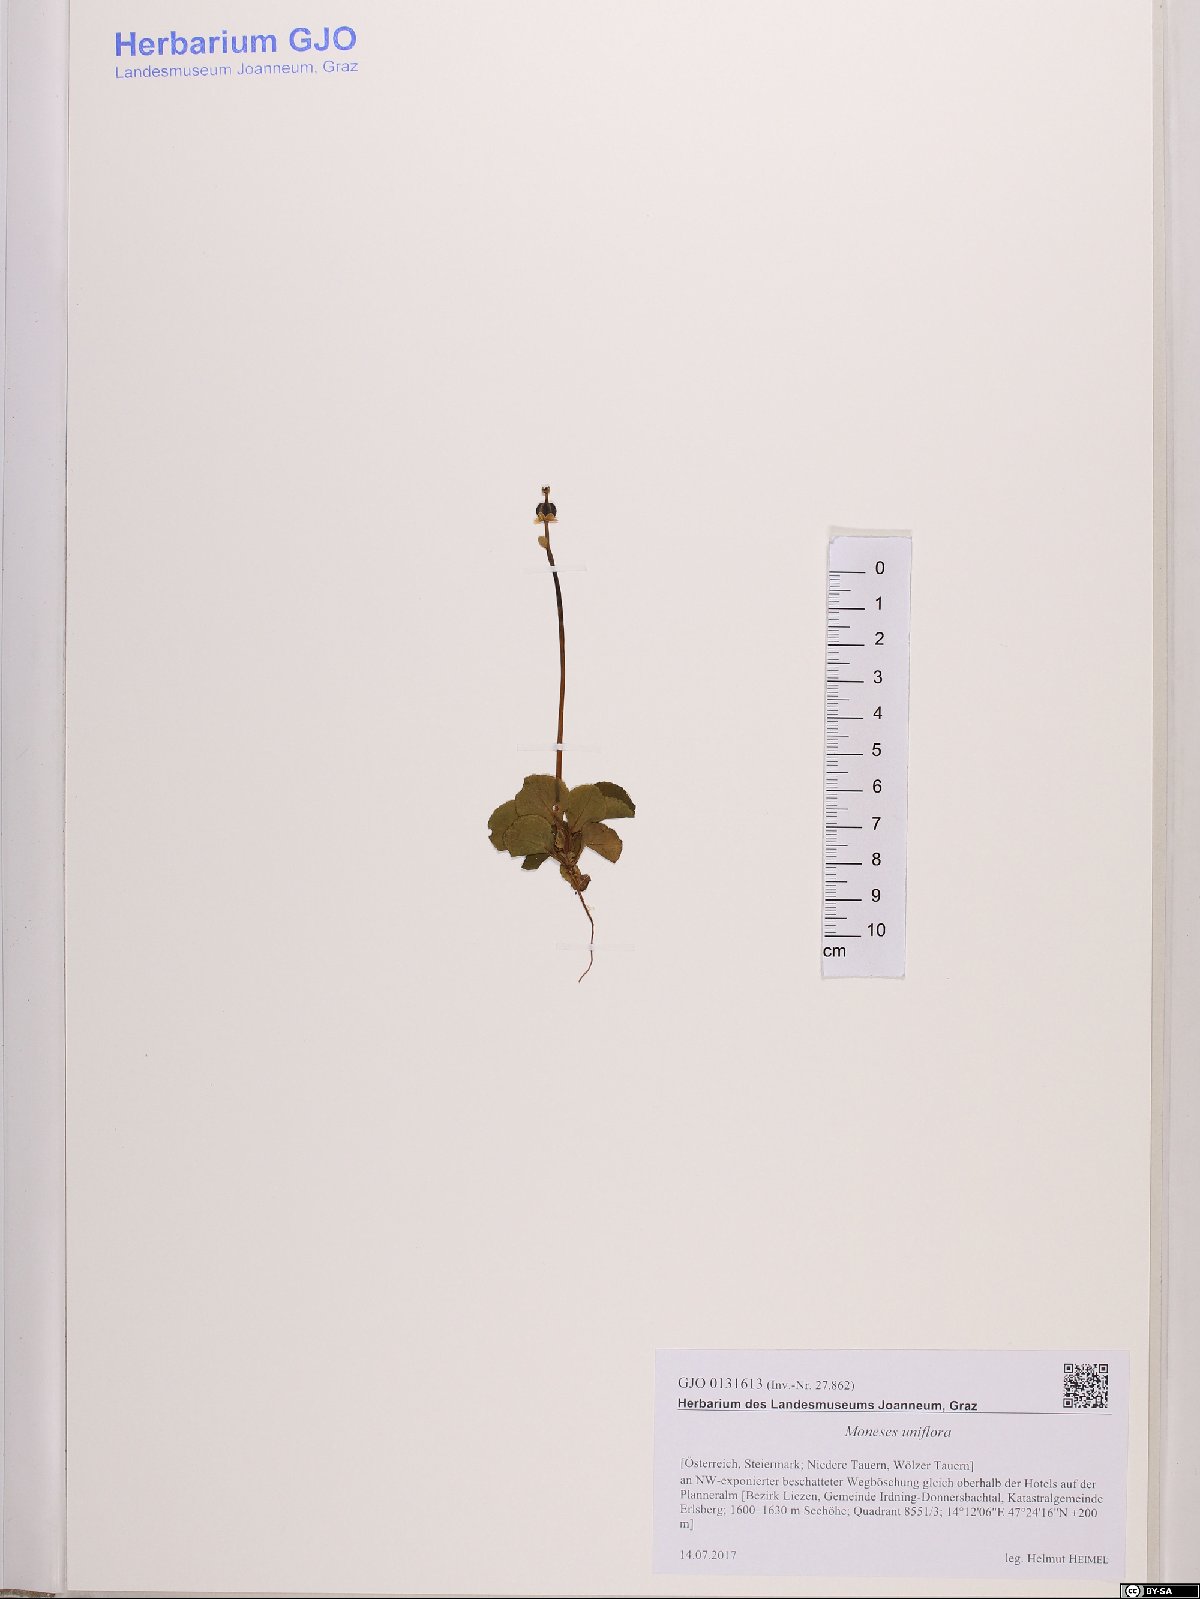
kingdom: Plantae
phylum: Tracheophyta
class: Magnoliopsida
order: Ericales
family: Ericaceae
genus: Moneses
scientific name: Moneses uniflora
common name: One-flowered wintergreen
